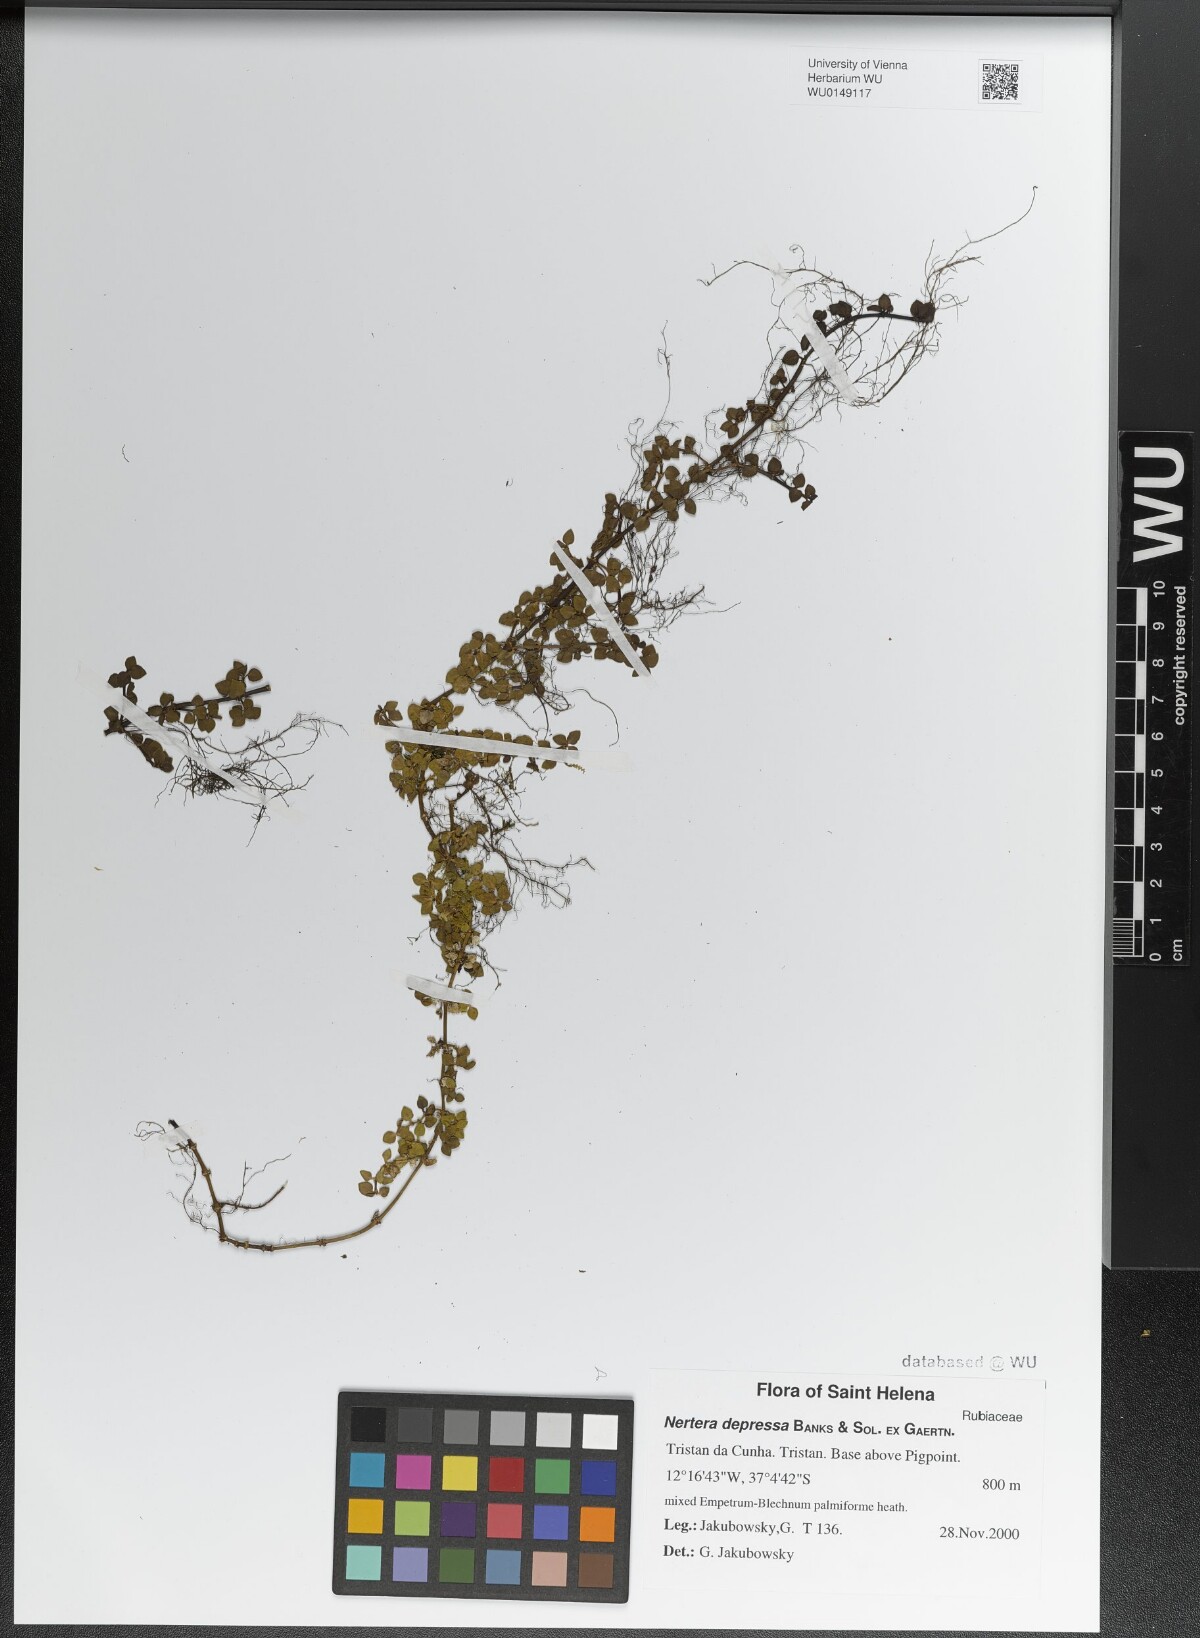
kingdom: Plantae
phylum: Tracheophyta
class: Magnoliopsida
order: Gentianales
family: Rubiaceae
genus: Nertera
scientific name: Nertera granadensis
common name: Beadplant
